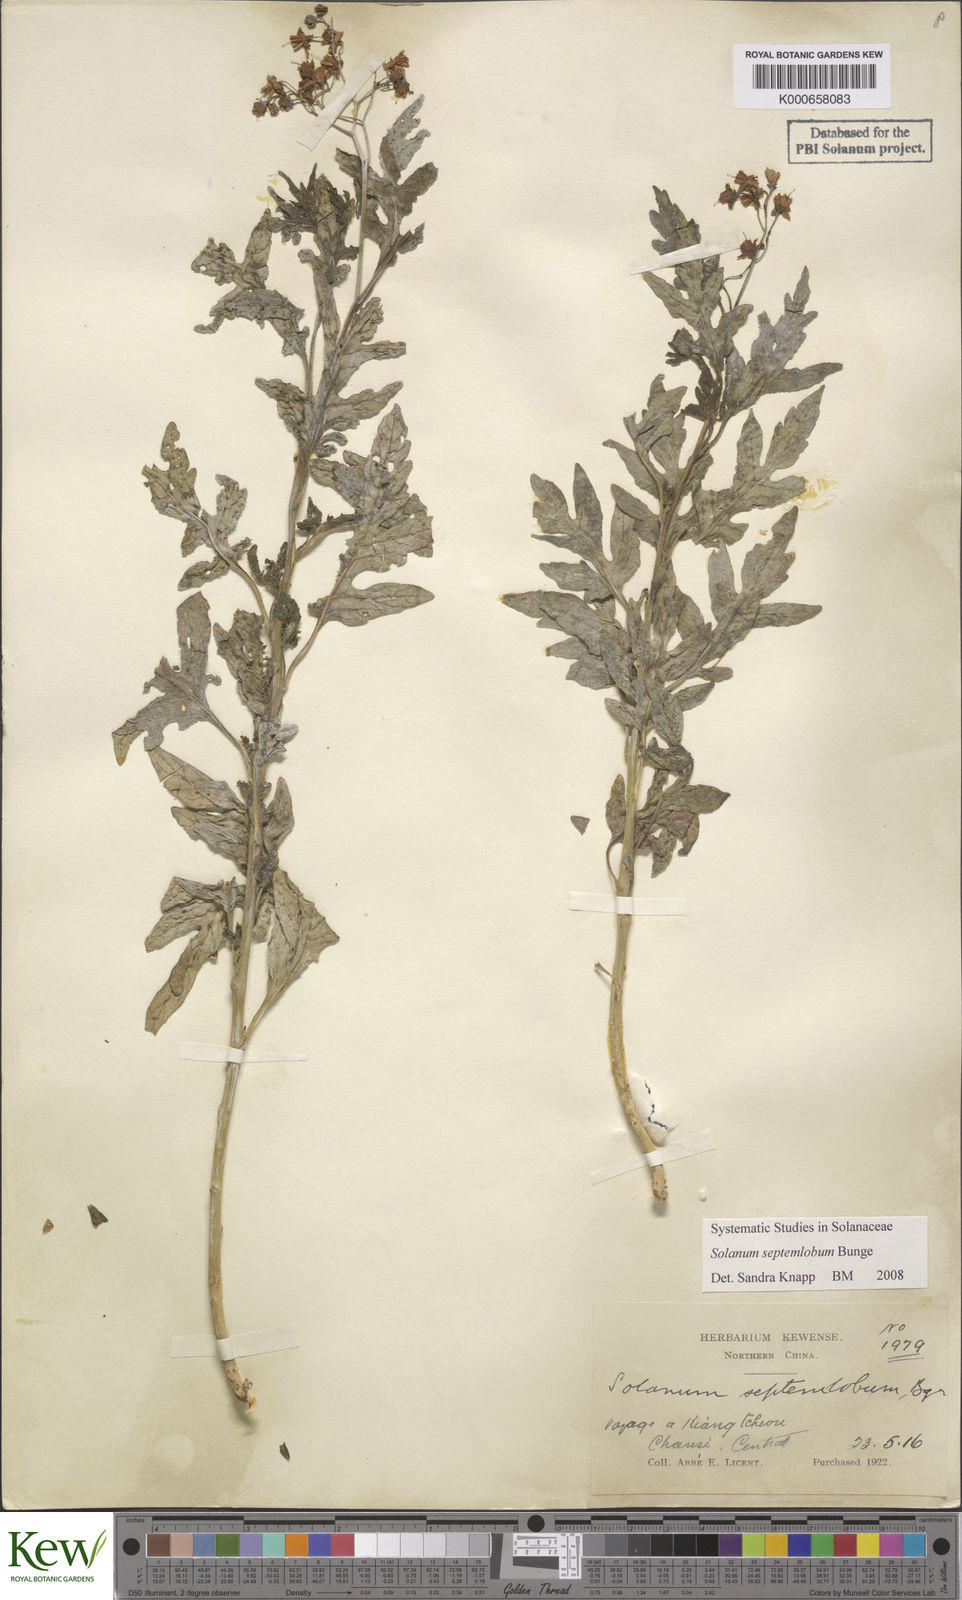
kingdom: Plantae
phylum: Tracheophyta
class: Magnoliopsida
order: Solanales
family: Solanaceae
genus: Solanum
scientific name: Solanum septemlobum
